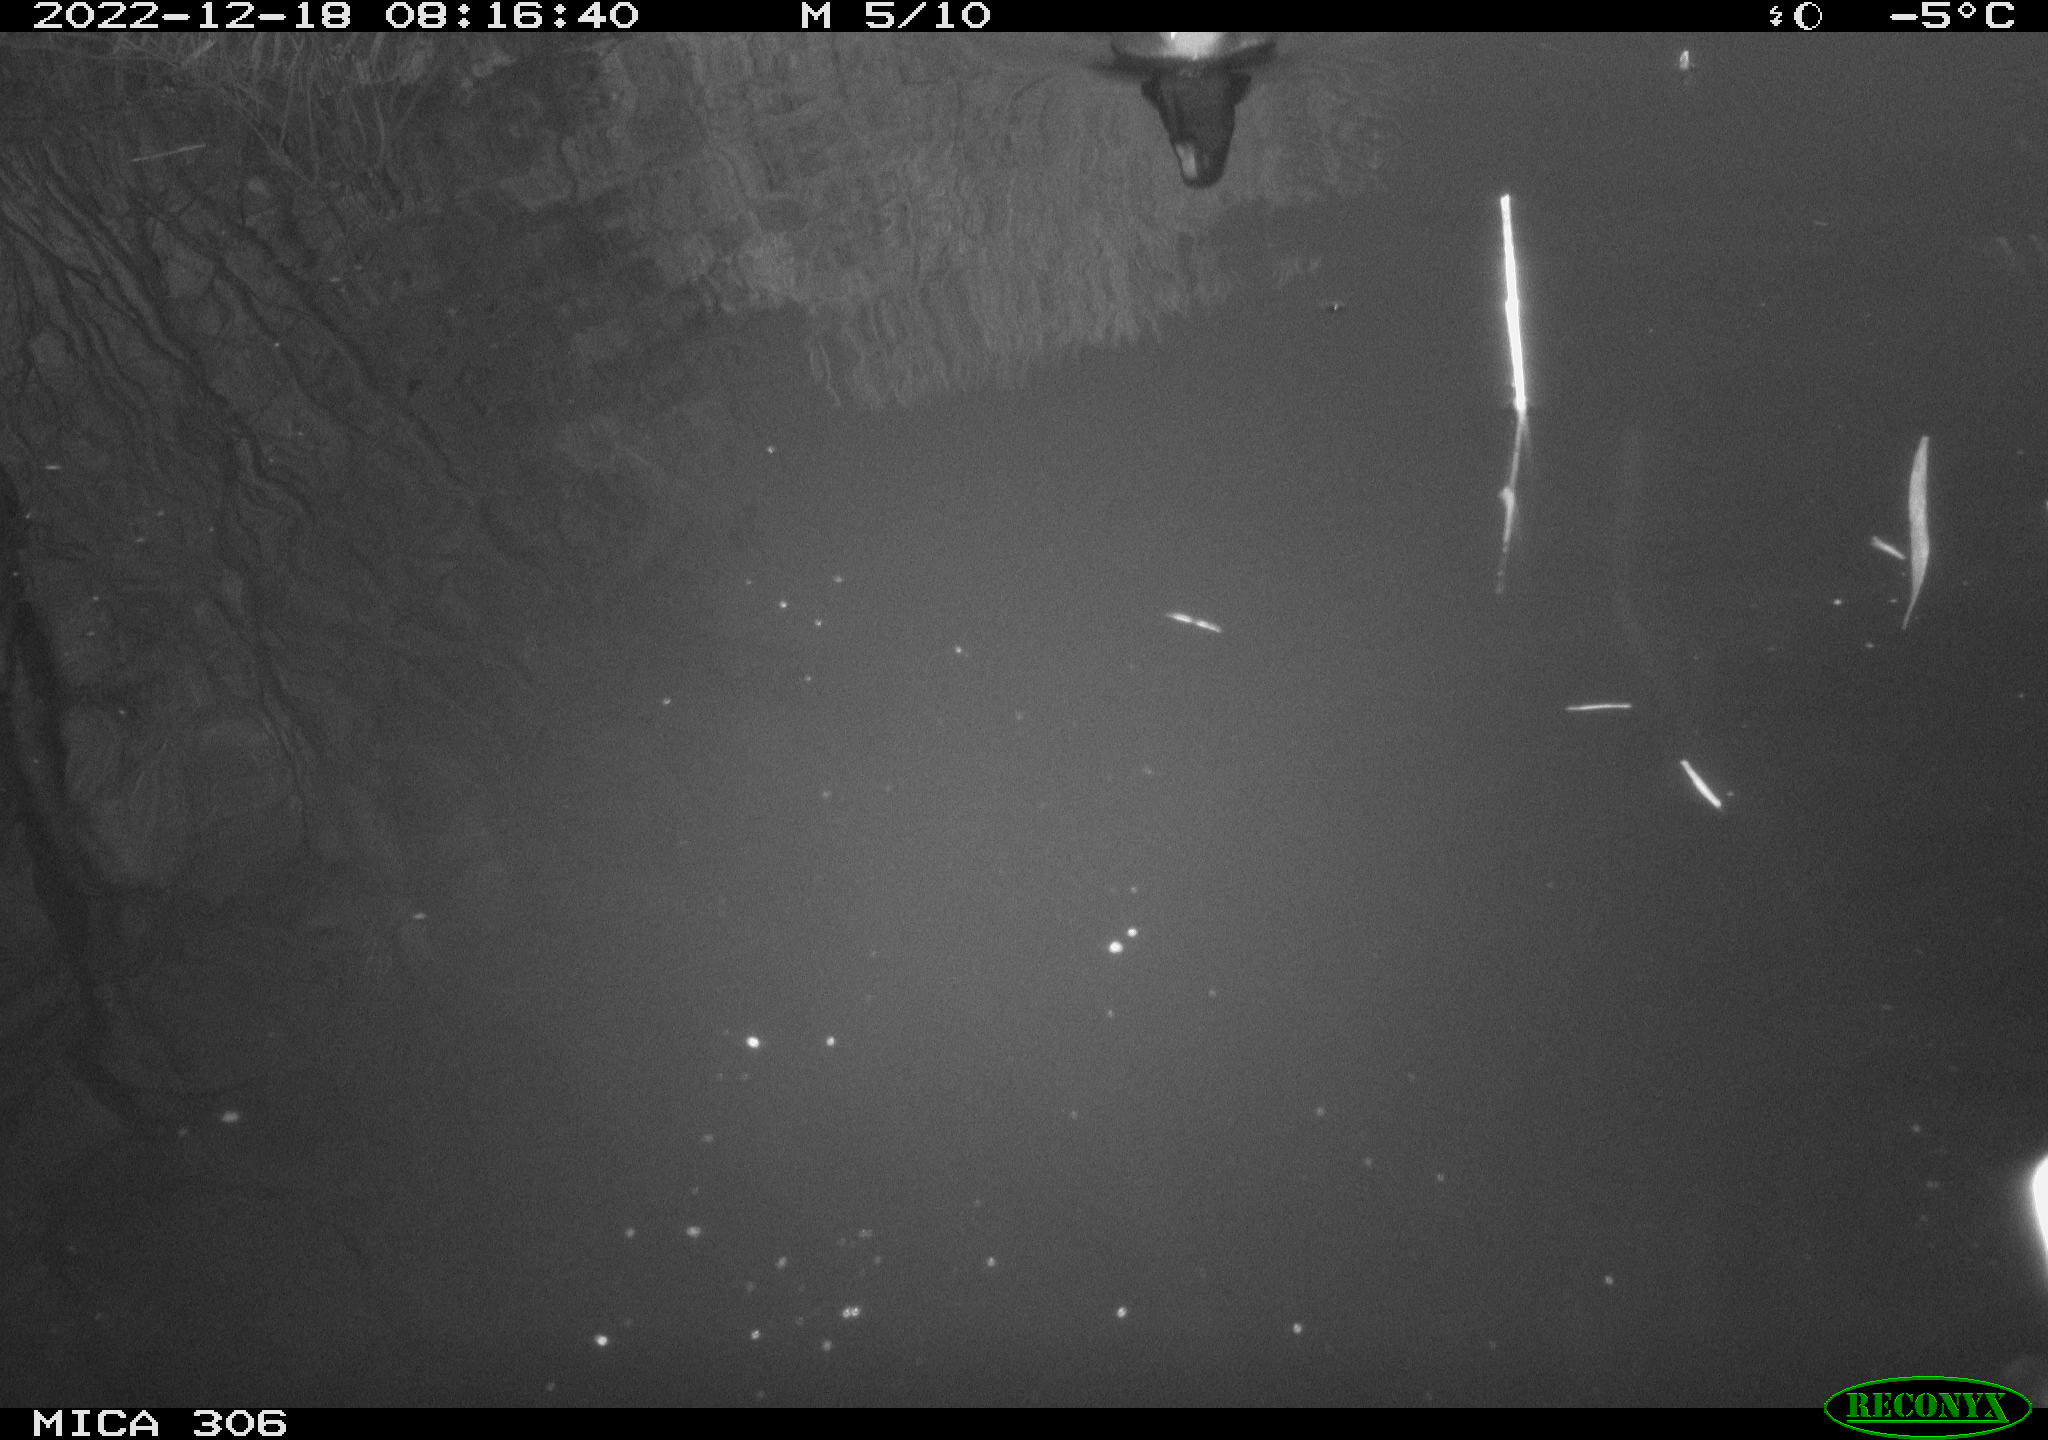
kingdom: Animalia
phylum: Chordata
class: Aves
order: Gruiformes
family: Rallidae
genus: Gallinula
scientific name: Gallinula chloropus
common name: Common moorhen
